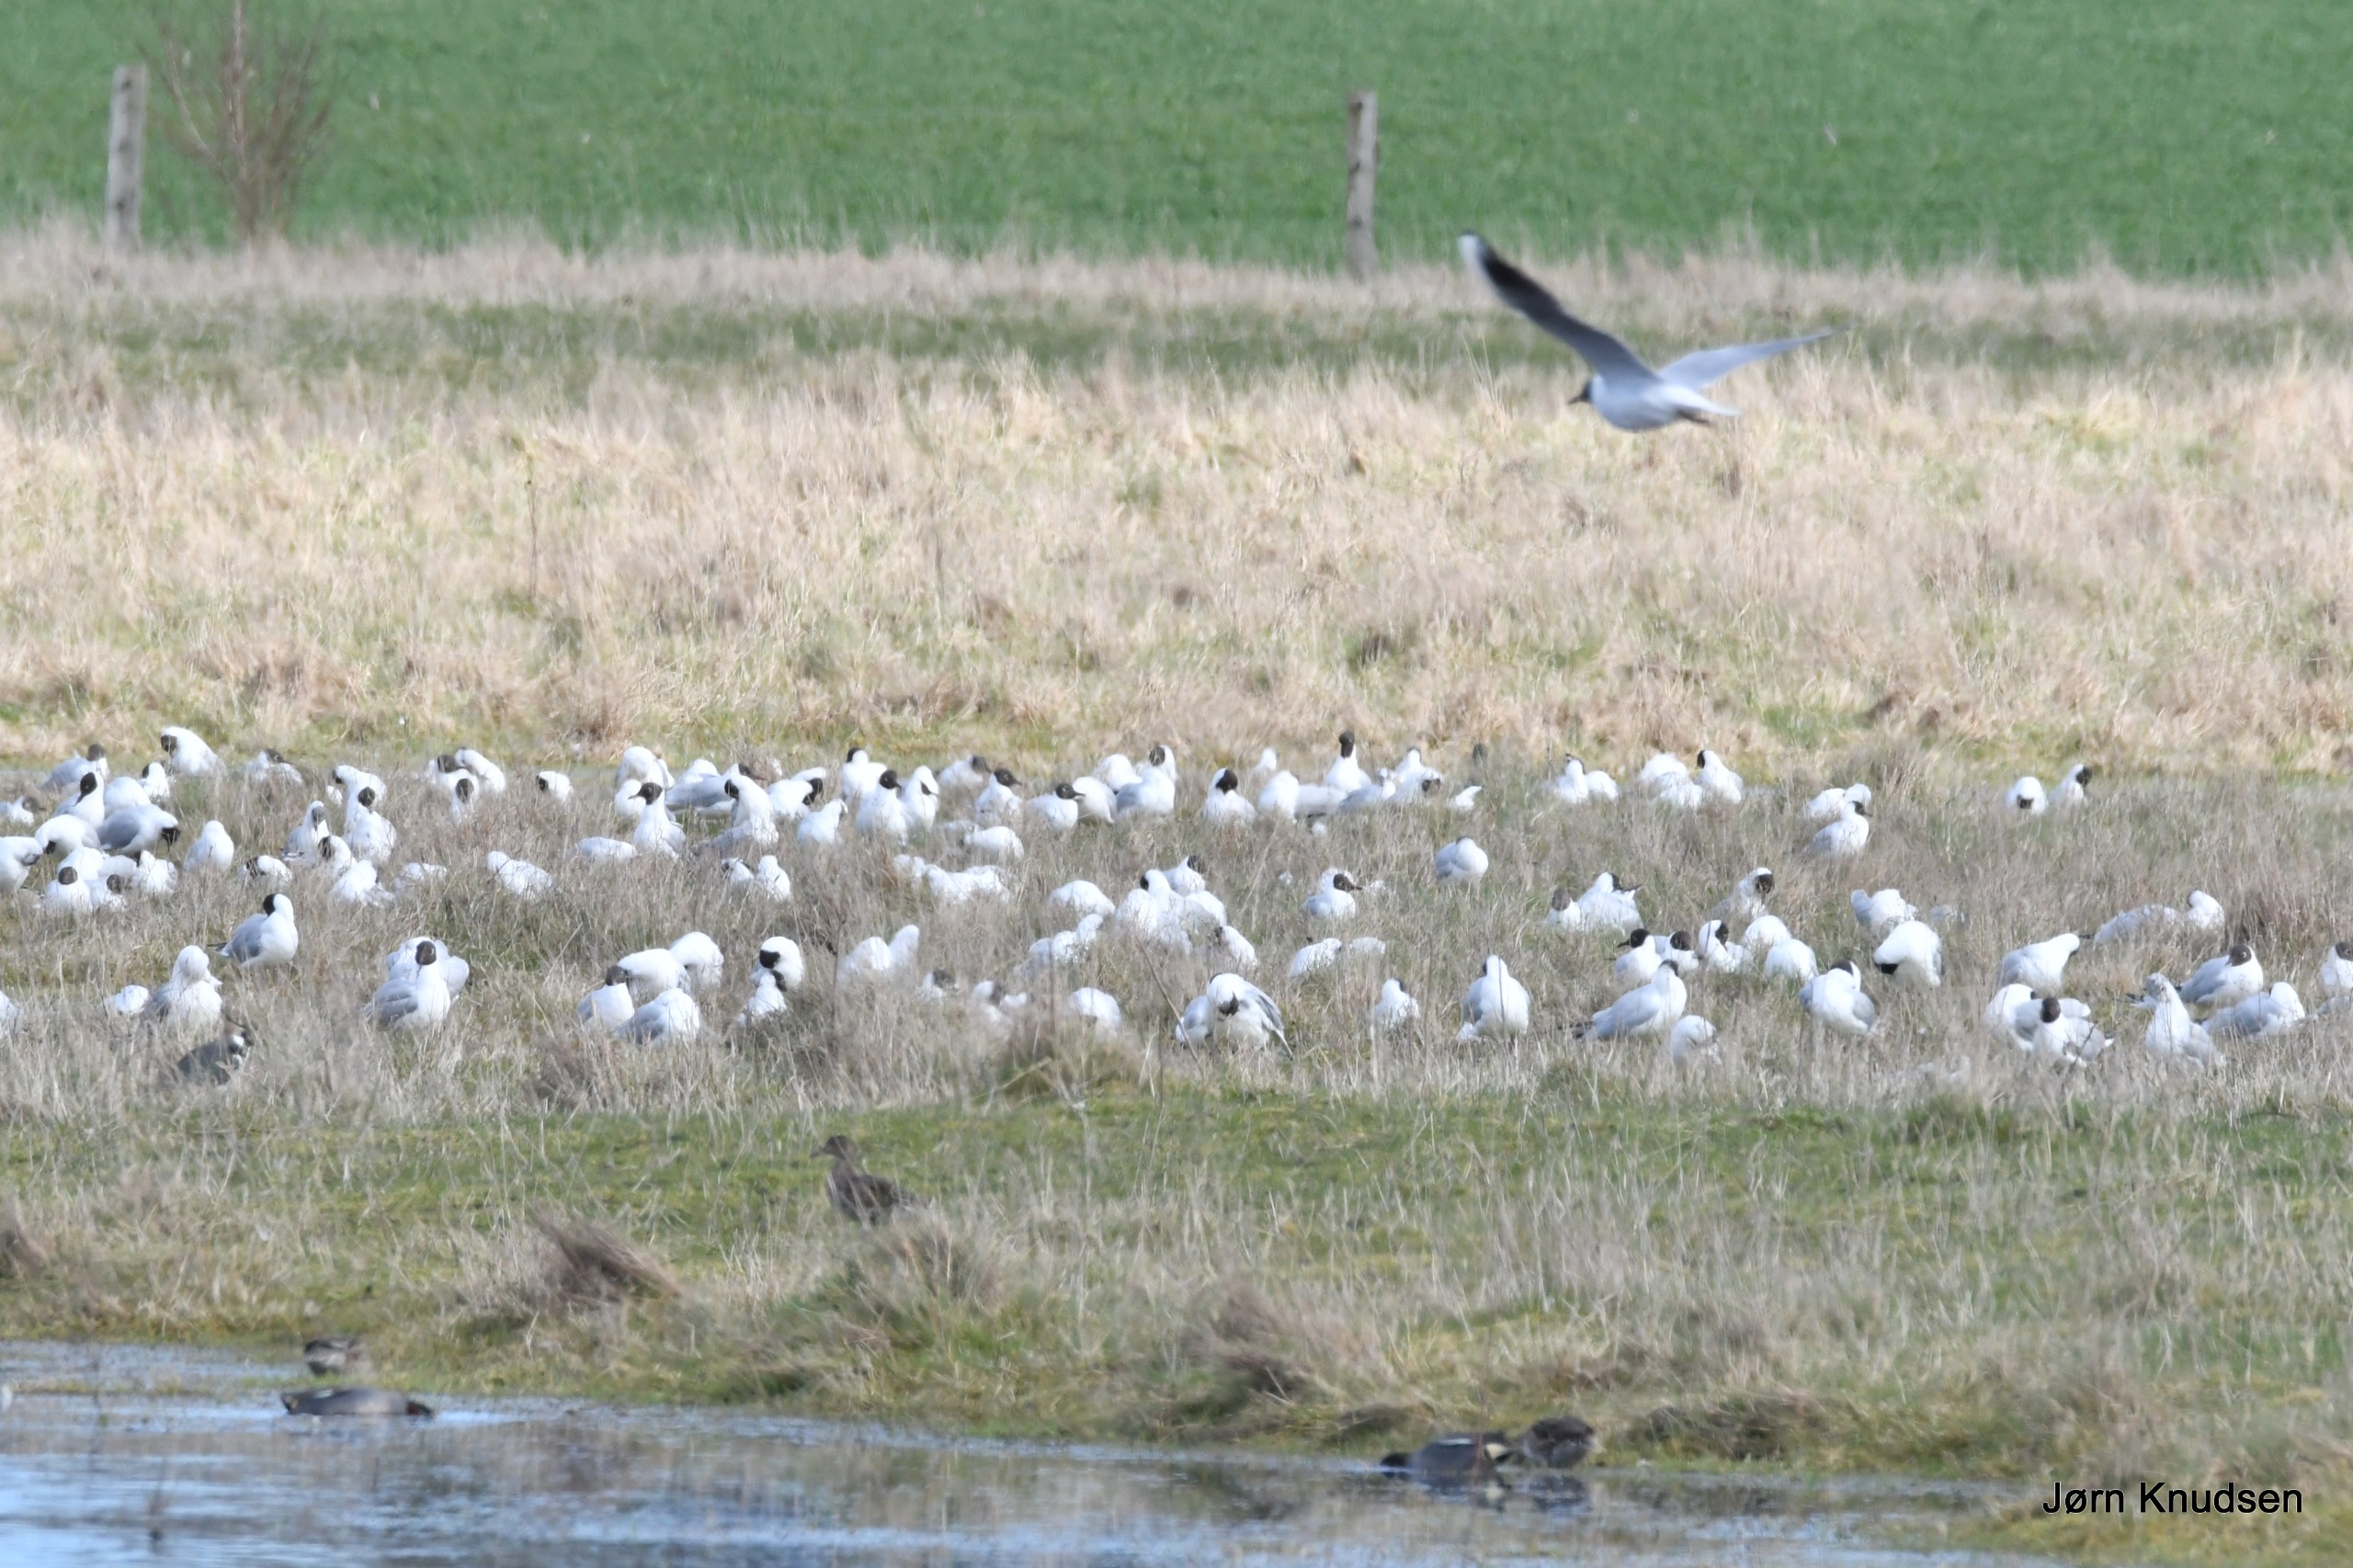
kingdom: Animalia
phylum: Chordata
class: Aves
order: Charadriiformes
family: Laridae
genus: Chroicocephalus
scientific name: Chroicocephalus ridibundus
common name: Hættemåge
